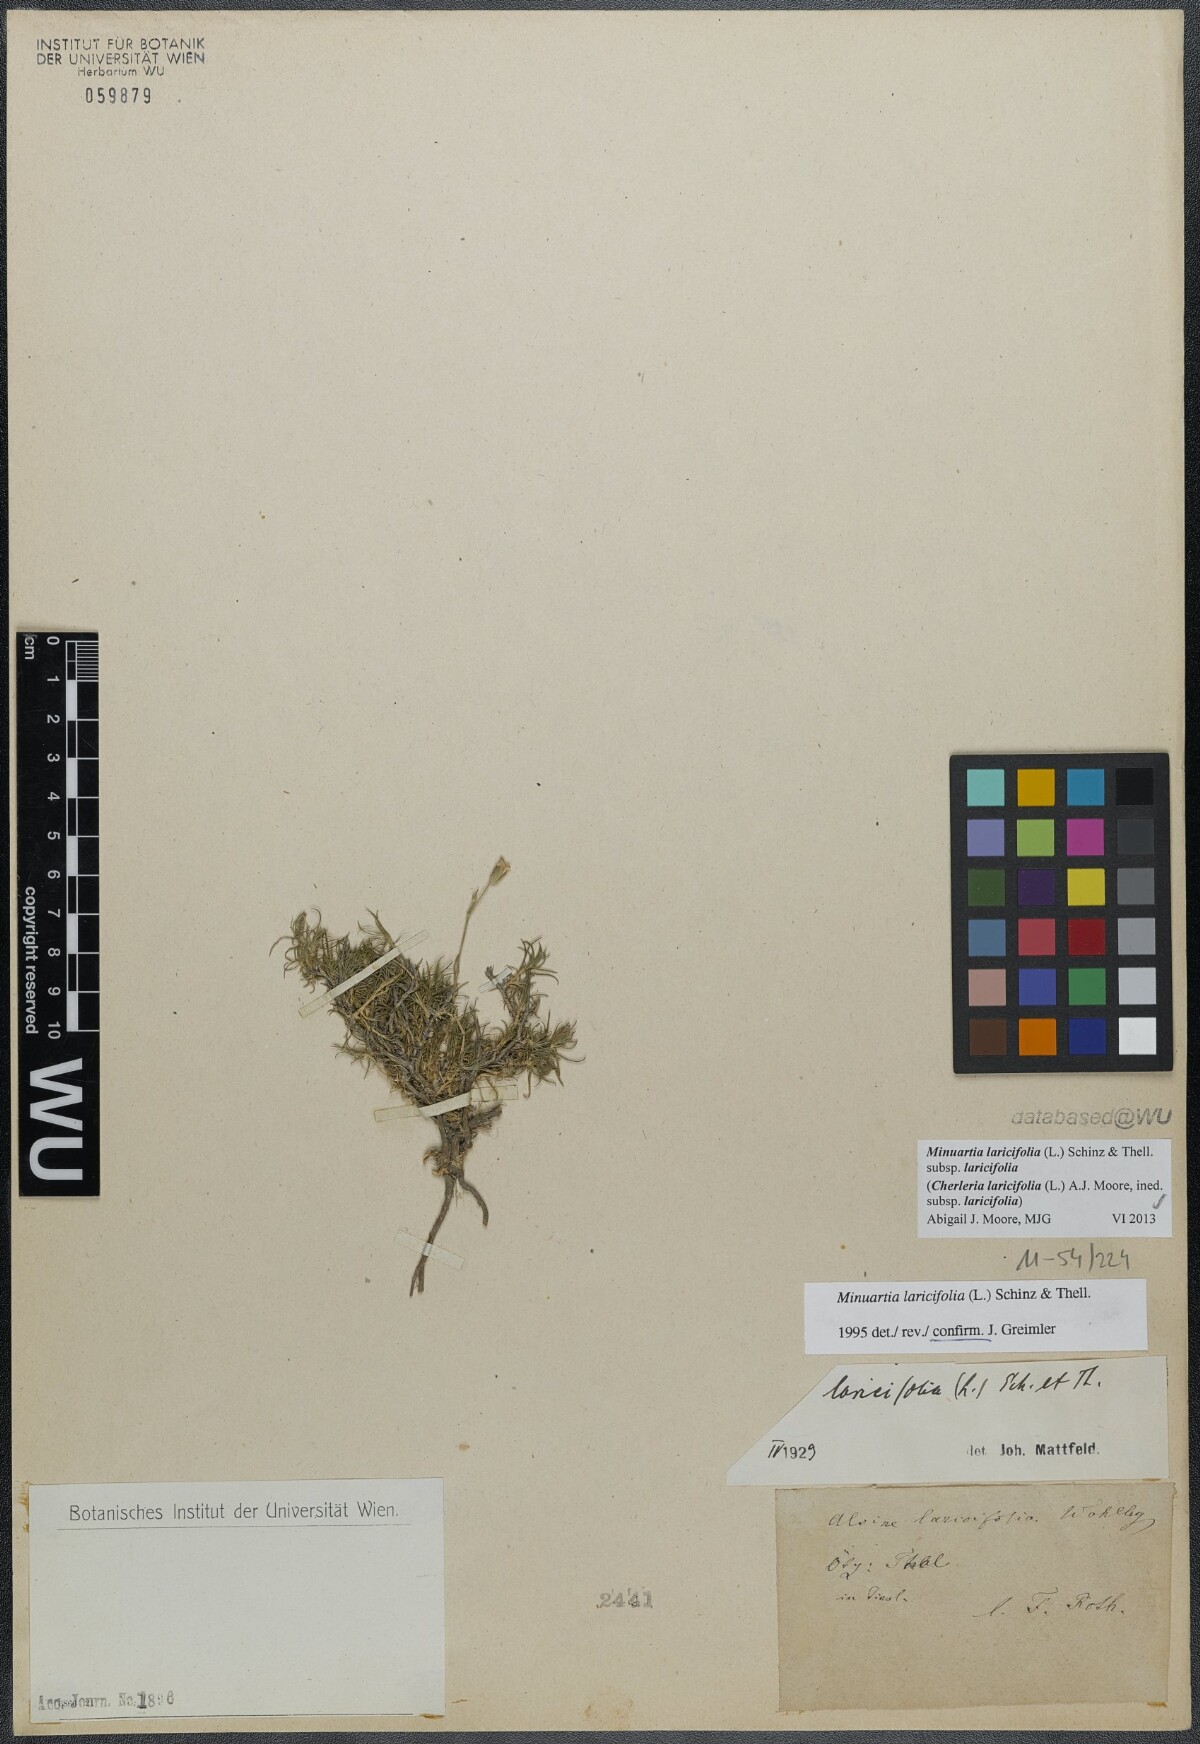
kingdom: Plantae
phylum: Tracheophyta
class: Magnoliopsida
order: Caryophyllales
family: Caryophyllaceae
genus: Cherleria
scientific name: Cherleria laricifolia
